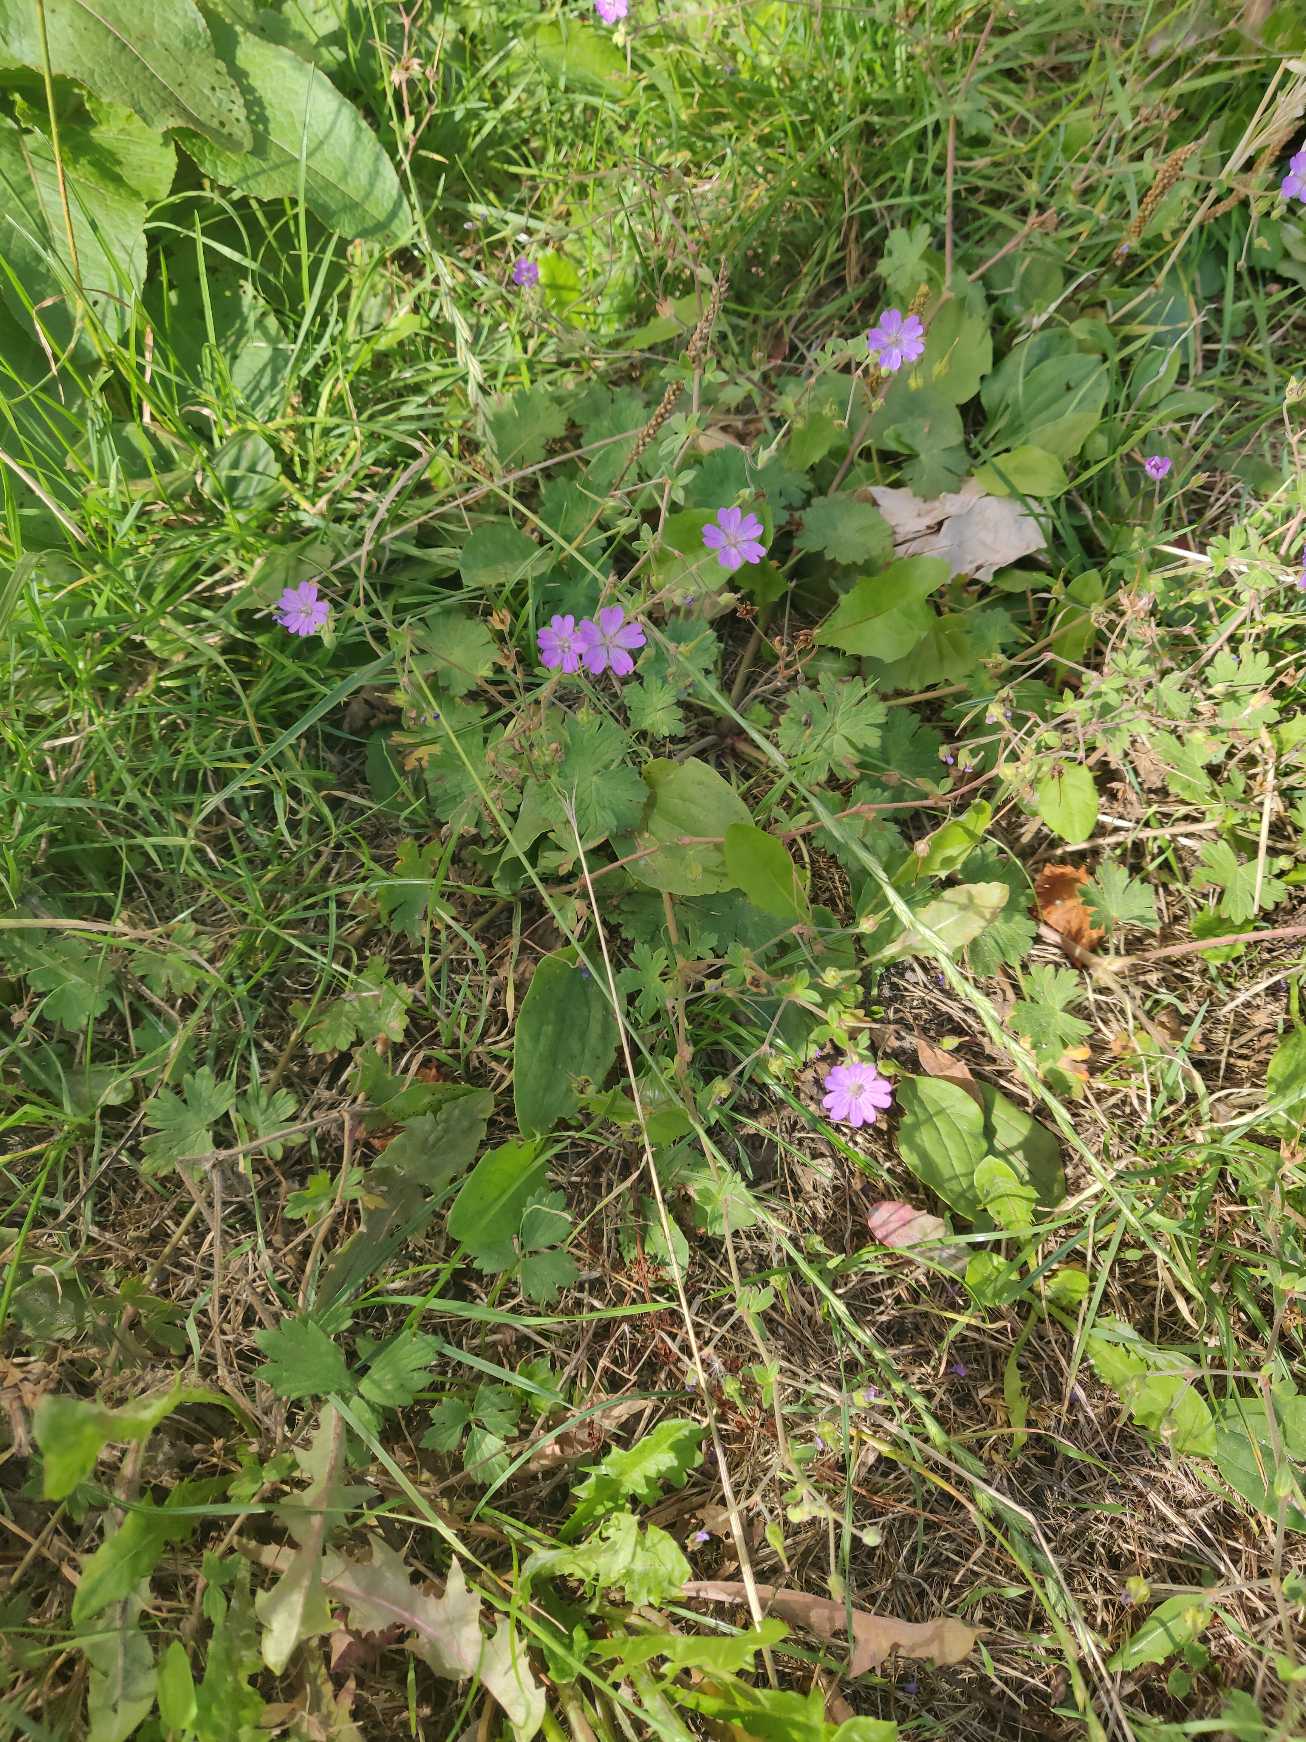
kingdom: Plantae
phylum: Tracheophyta
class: Magnoliopsida
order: Geraniales
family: Geraniaceae
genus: Geranium
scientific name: Geranium pyrenaicum
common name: Pyrenæisk storkenæb
